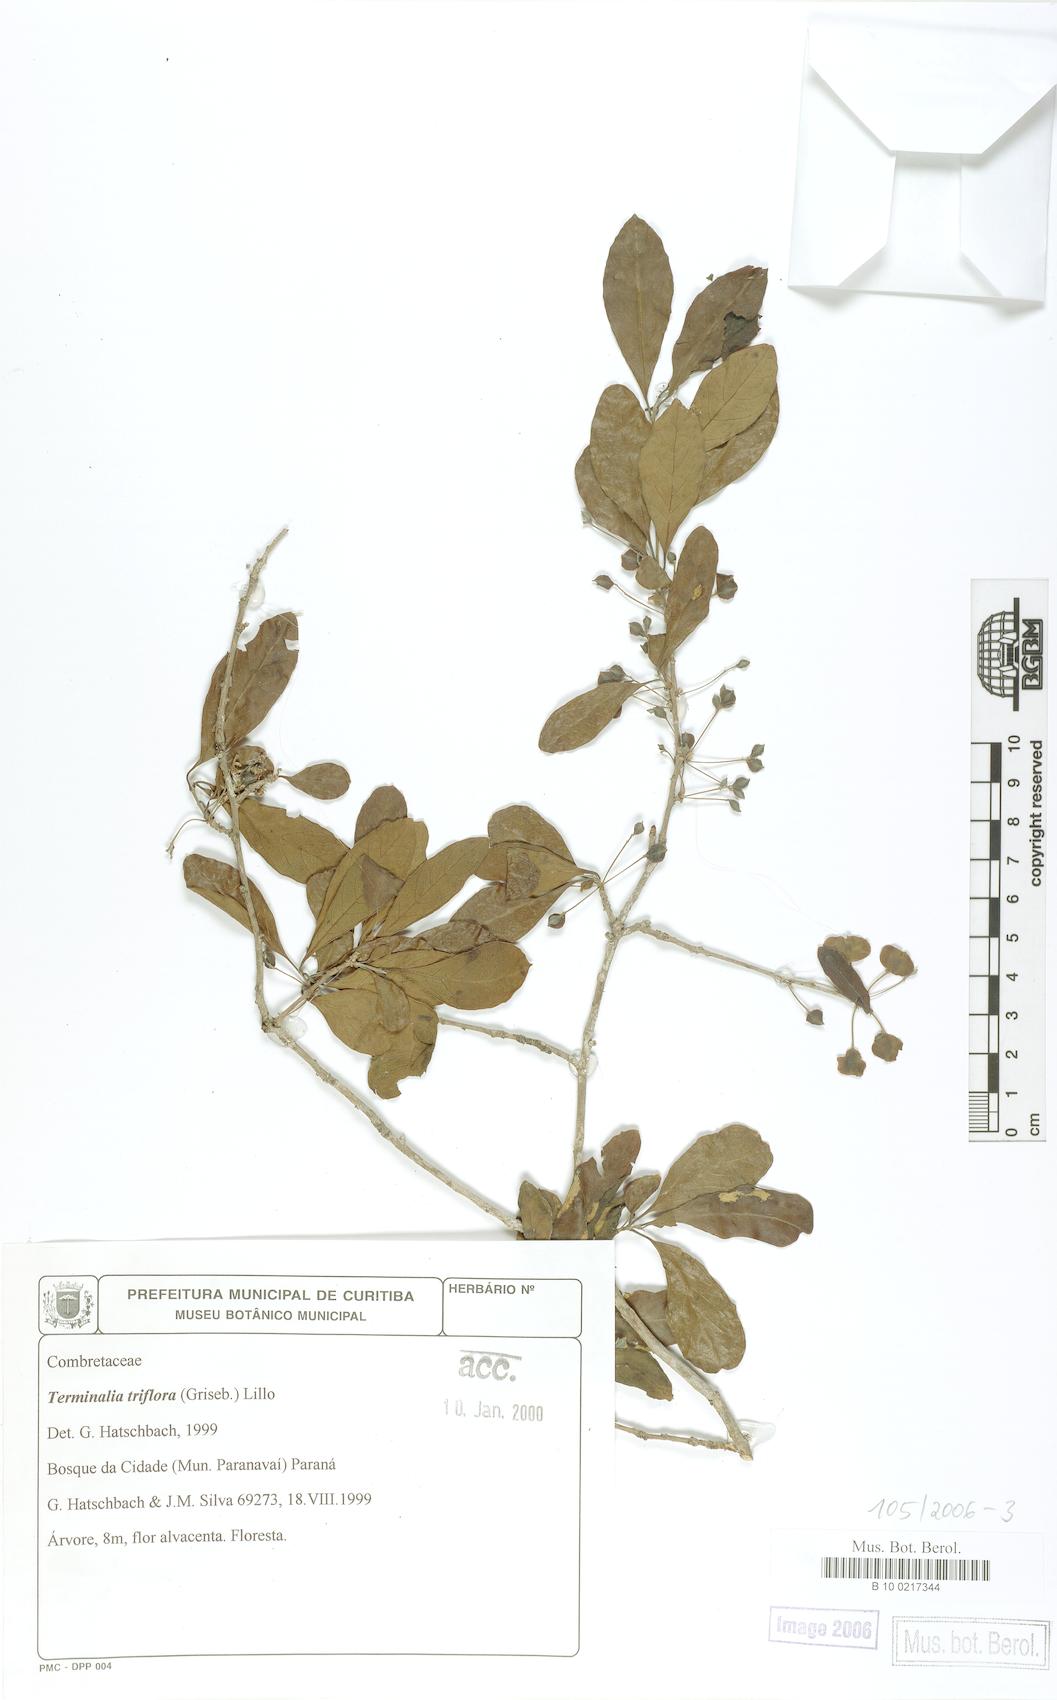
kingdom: Plantae
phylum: Tracheophyta
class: Magnoliopsida
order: Myrtales
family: Combretaceae
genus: Terminalia
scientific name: Terminalia triflora
